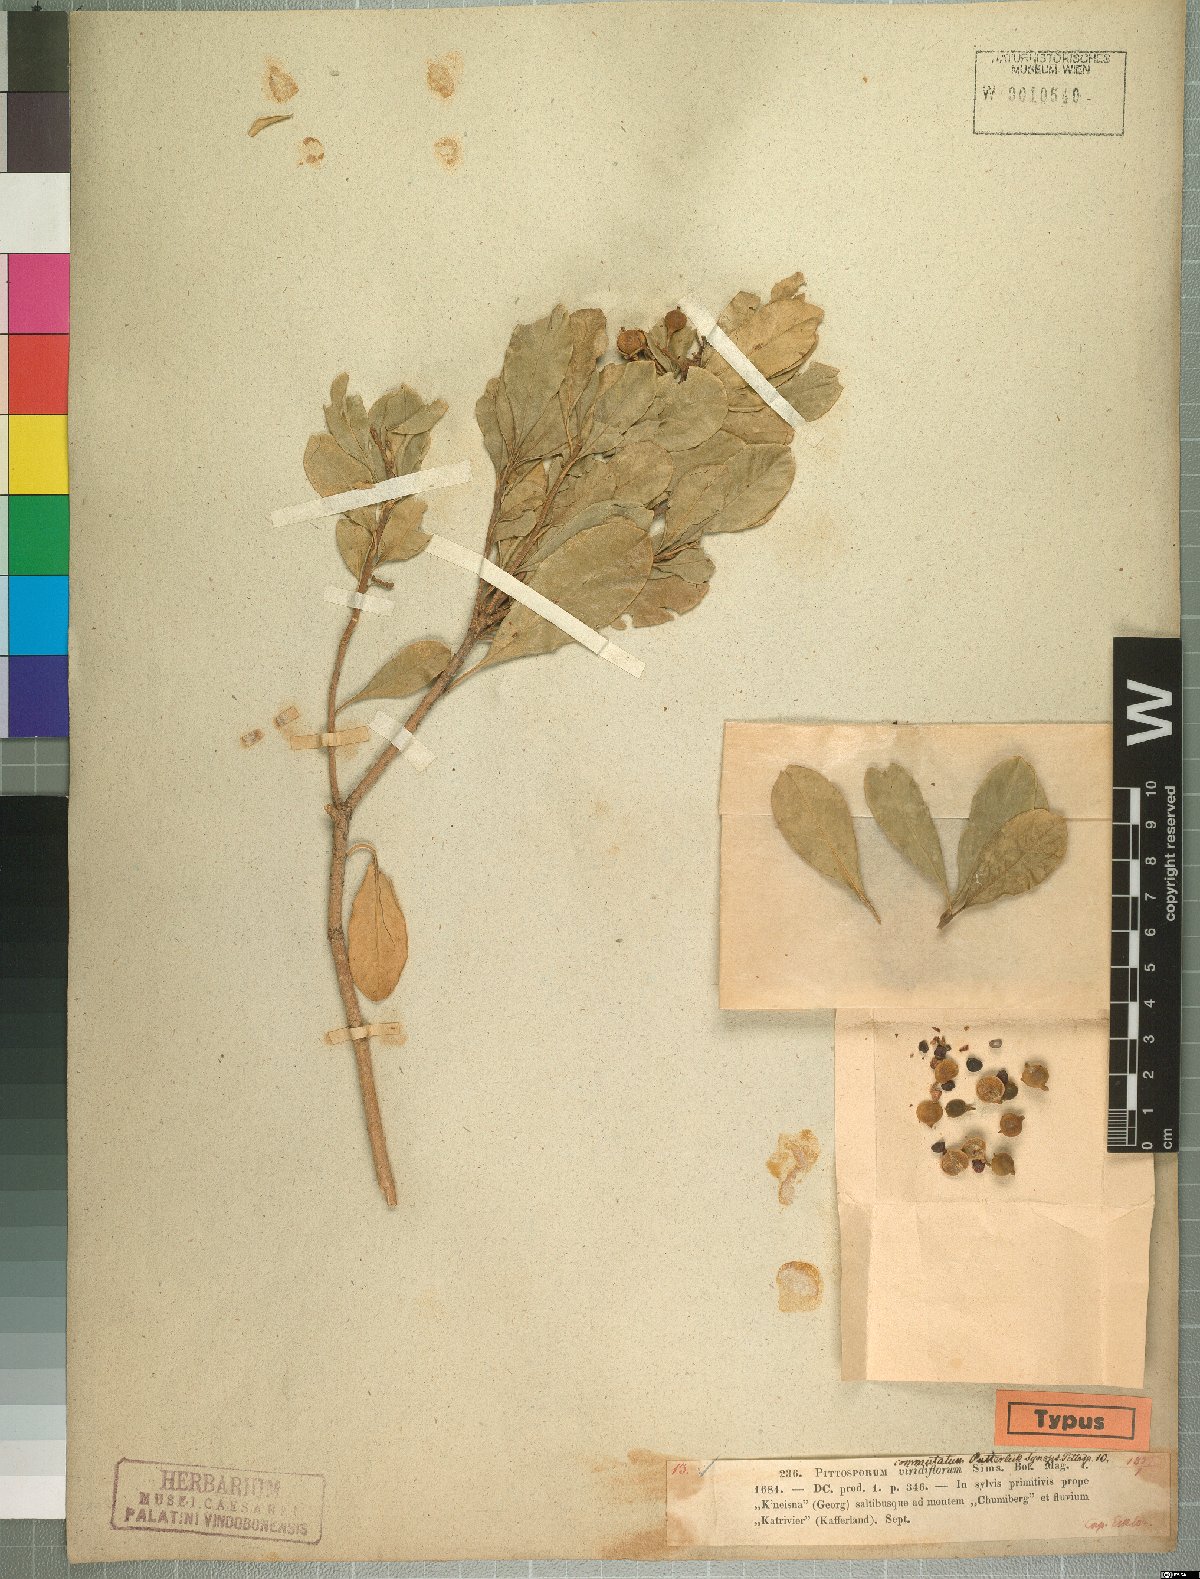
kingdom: Plantae
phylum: Tracheophyta
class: Magnoliopsida
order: Apiales
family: Pittosporaceae
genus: Pittosporum
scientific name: Pittosporum viridiflorum
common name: Cape cheesewood
